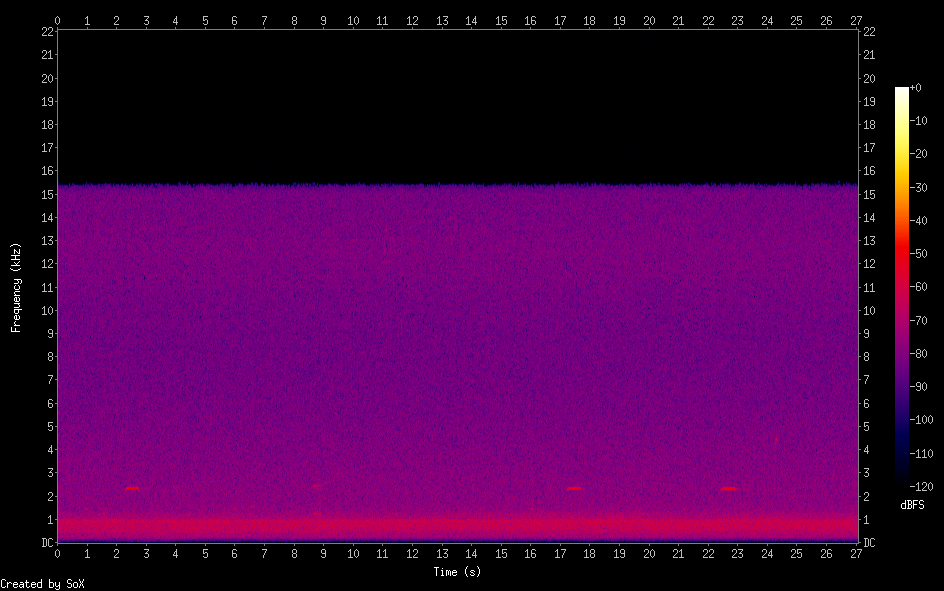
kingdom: Animalia
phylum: Chordata
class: Aves
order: Strigiformes
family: Strigidae
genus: Glaucidium
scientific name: Glaucidium passerinum
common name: Eurasian pygmy owl
